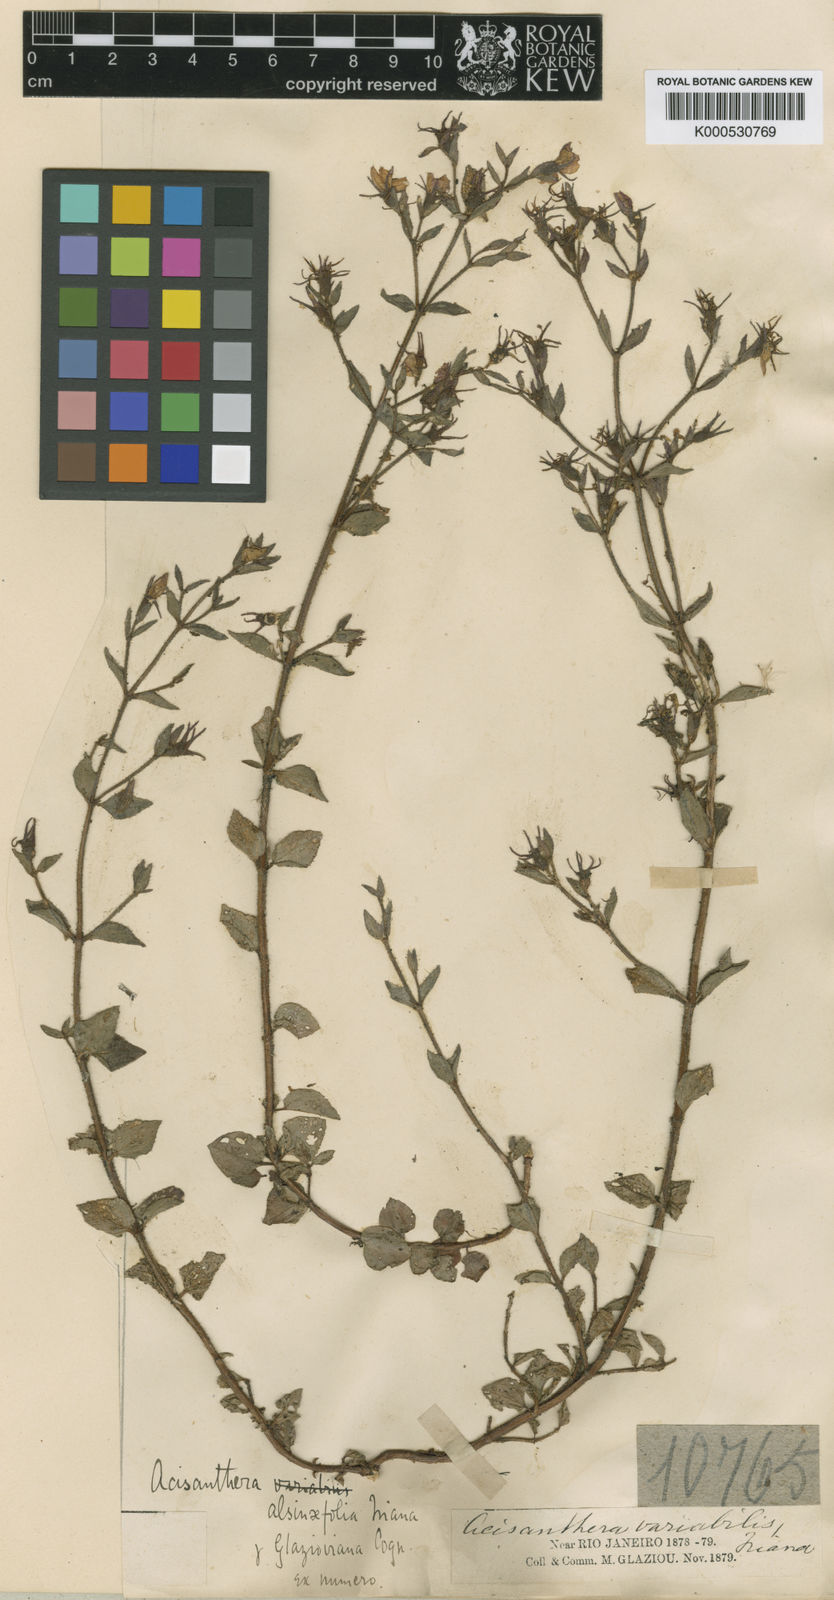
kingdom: Plantae
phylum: Tracheophyta
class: Magnoliopsida
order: Myrtales
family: Melastomataceae
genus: Acisanthera
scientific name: Acisanthera
